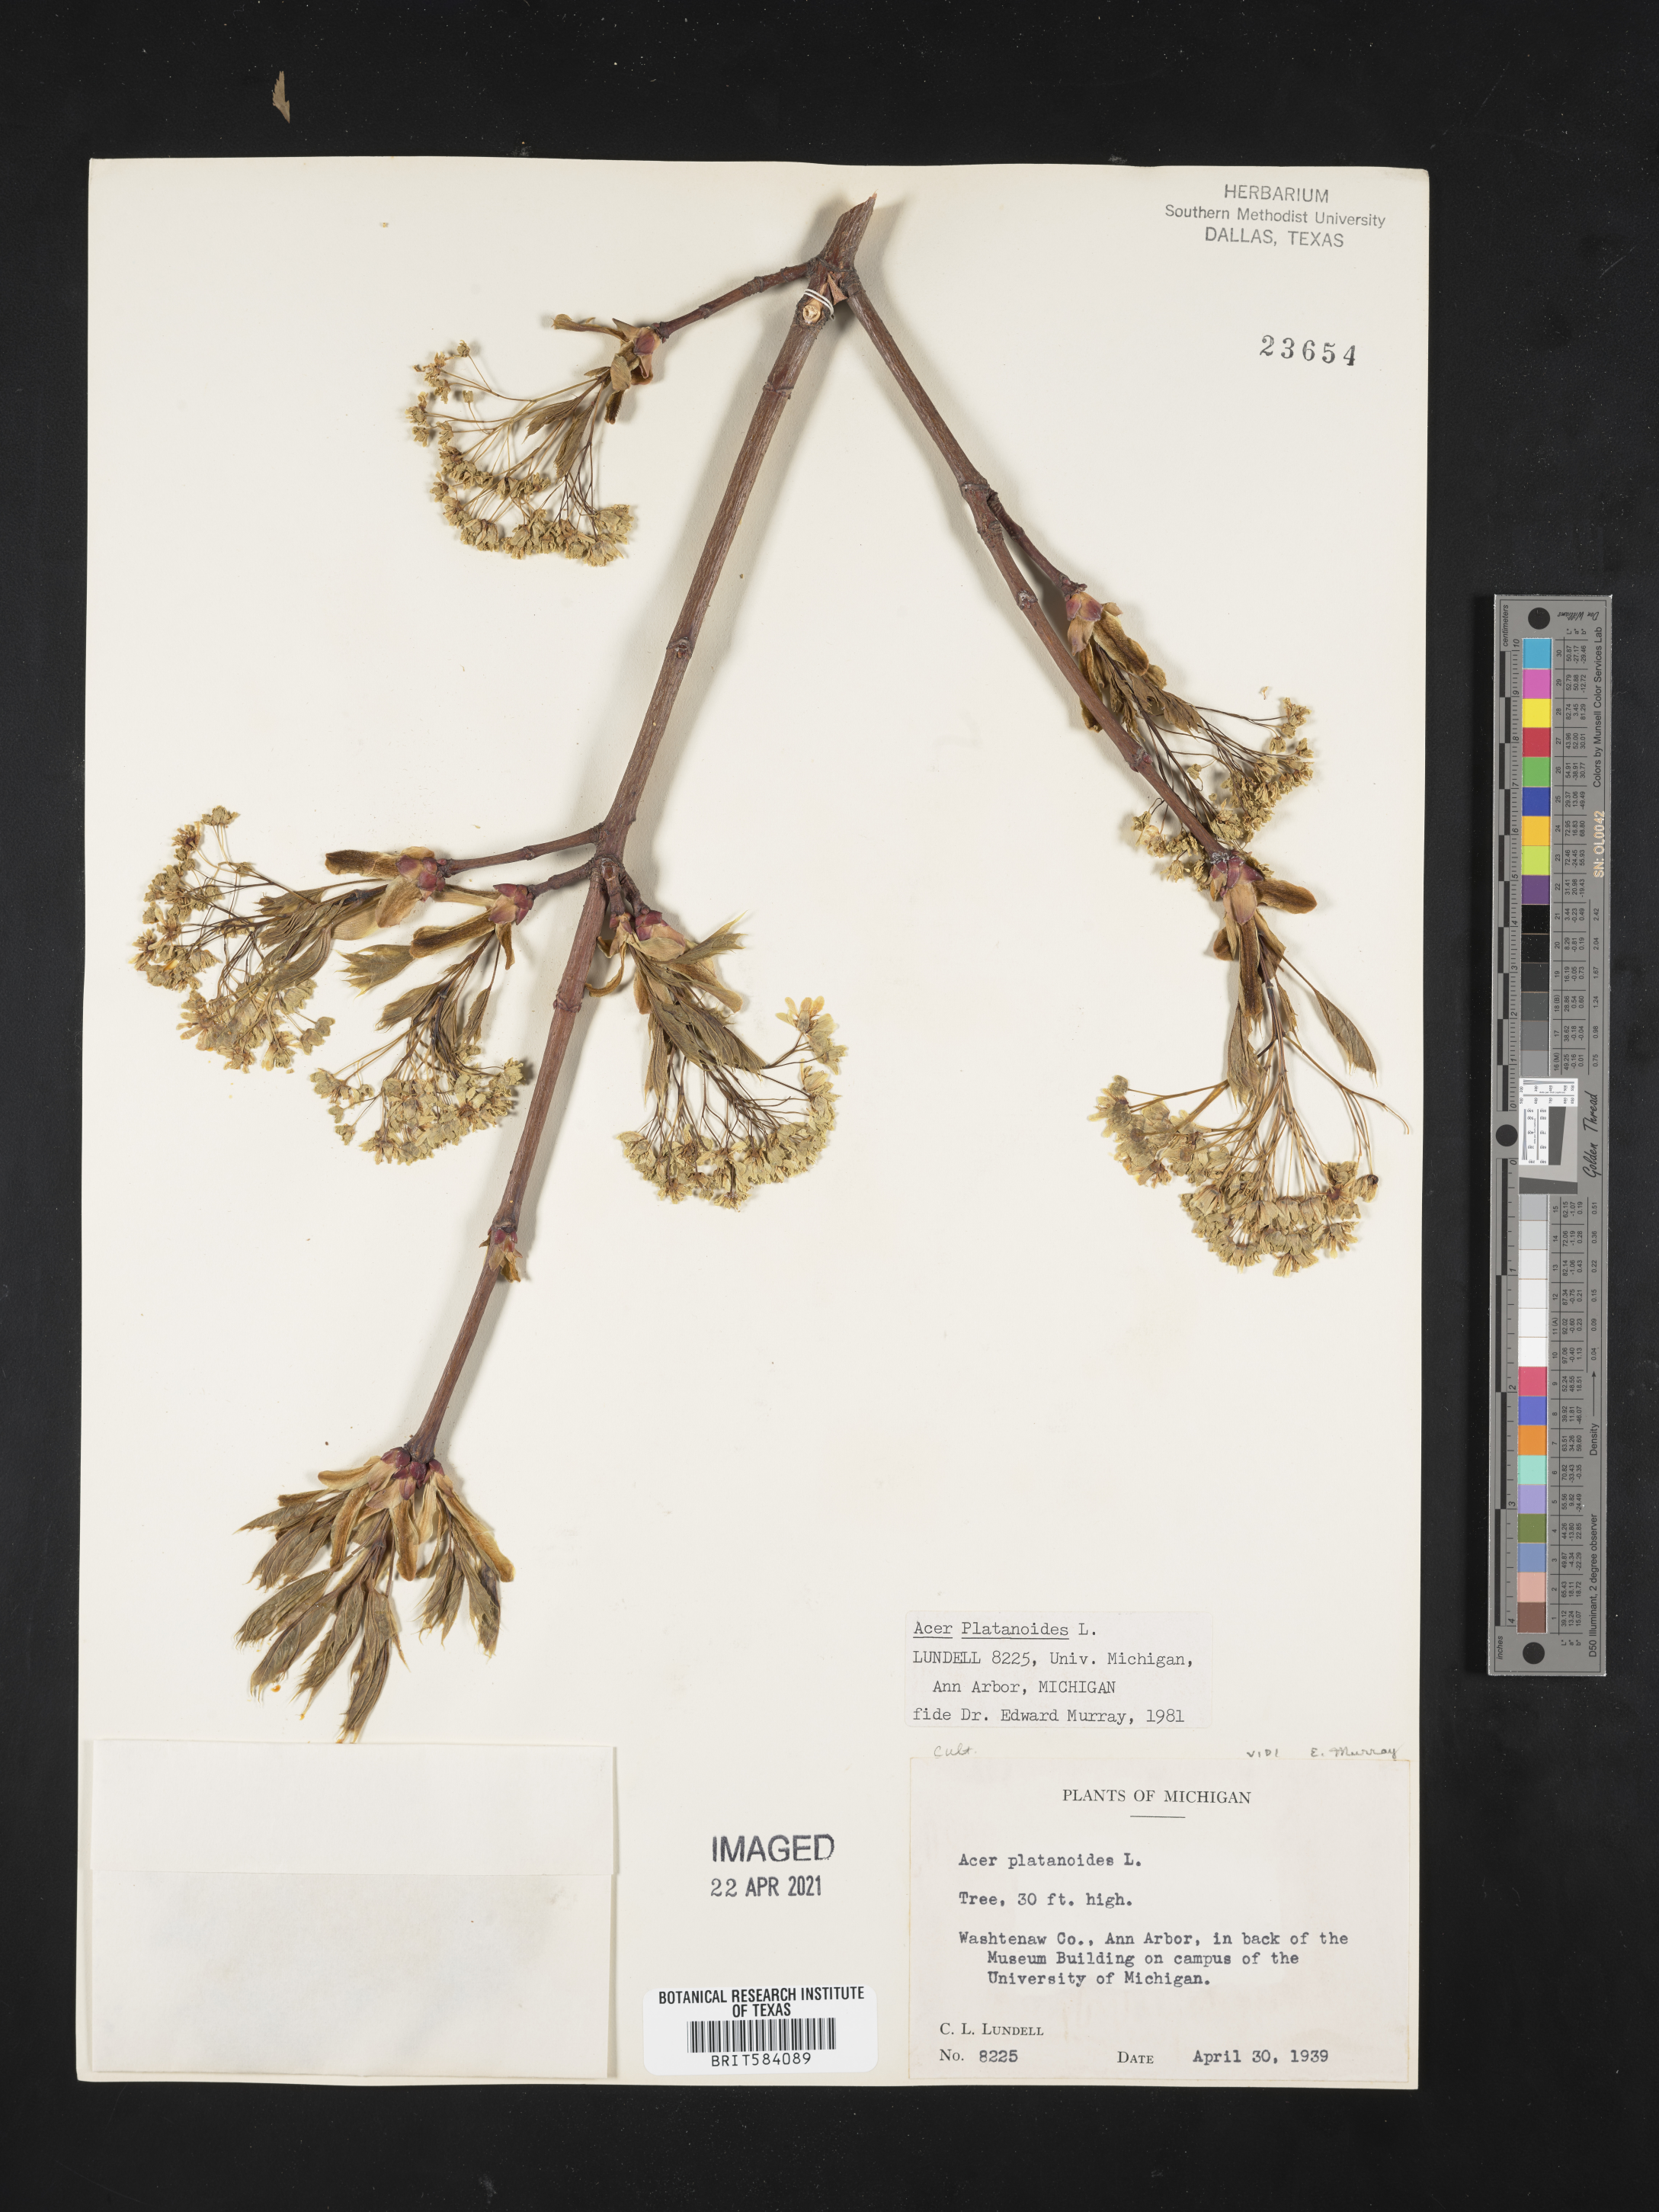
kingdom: Plantae
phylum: Tracheophyta
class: Magnoliopsida
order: Sapindales
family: Sapindaceae
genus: Acer
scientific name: Acer platanoides
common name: Norway maple
